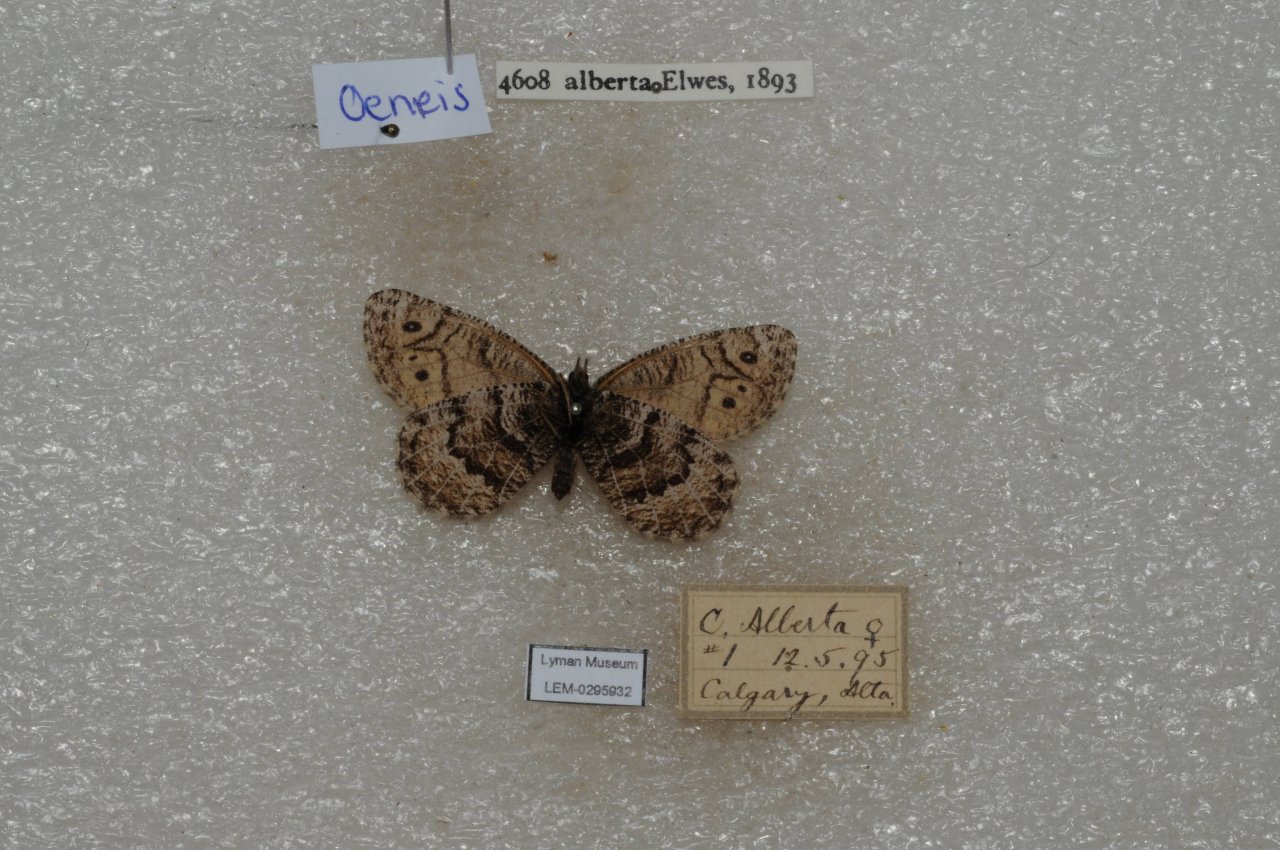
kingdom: Animalia
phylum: Arthropoda
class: Insecta
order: Lepidoptera
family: Nymphalidae
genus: Oeneis
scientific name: Oeneis alberta
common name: Alberta Arctic
